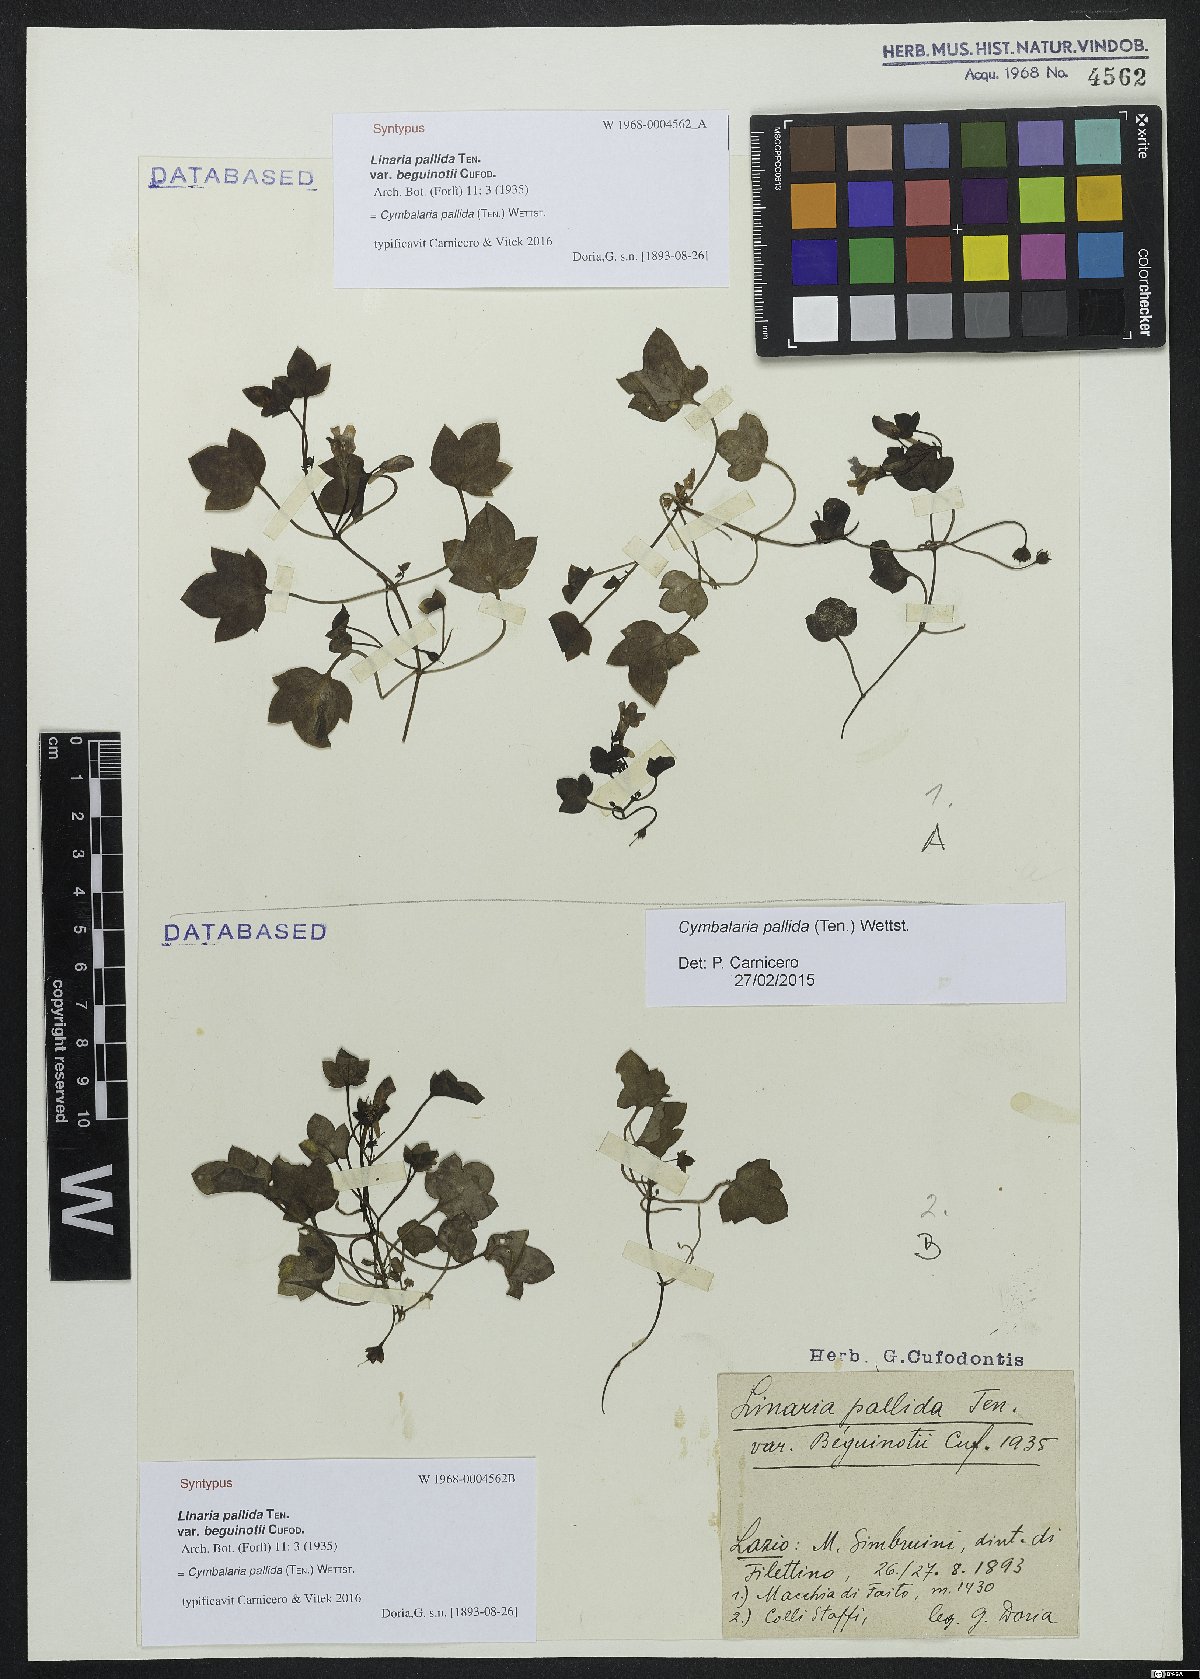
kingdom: Plantae
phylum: Tracheophyta
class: Magnoliopsida
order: Lamiales
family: Plantaginaceae
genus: Cymbalaria
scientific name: Cymbalaria pallida
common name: Italian toadflax
